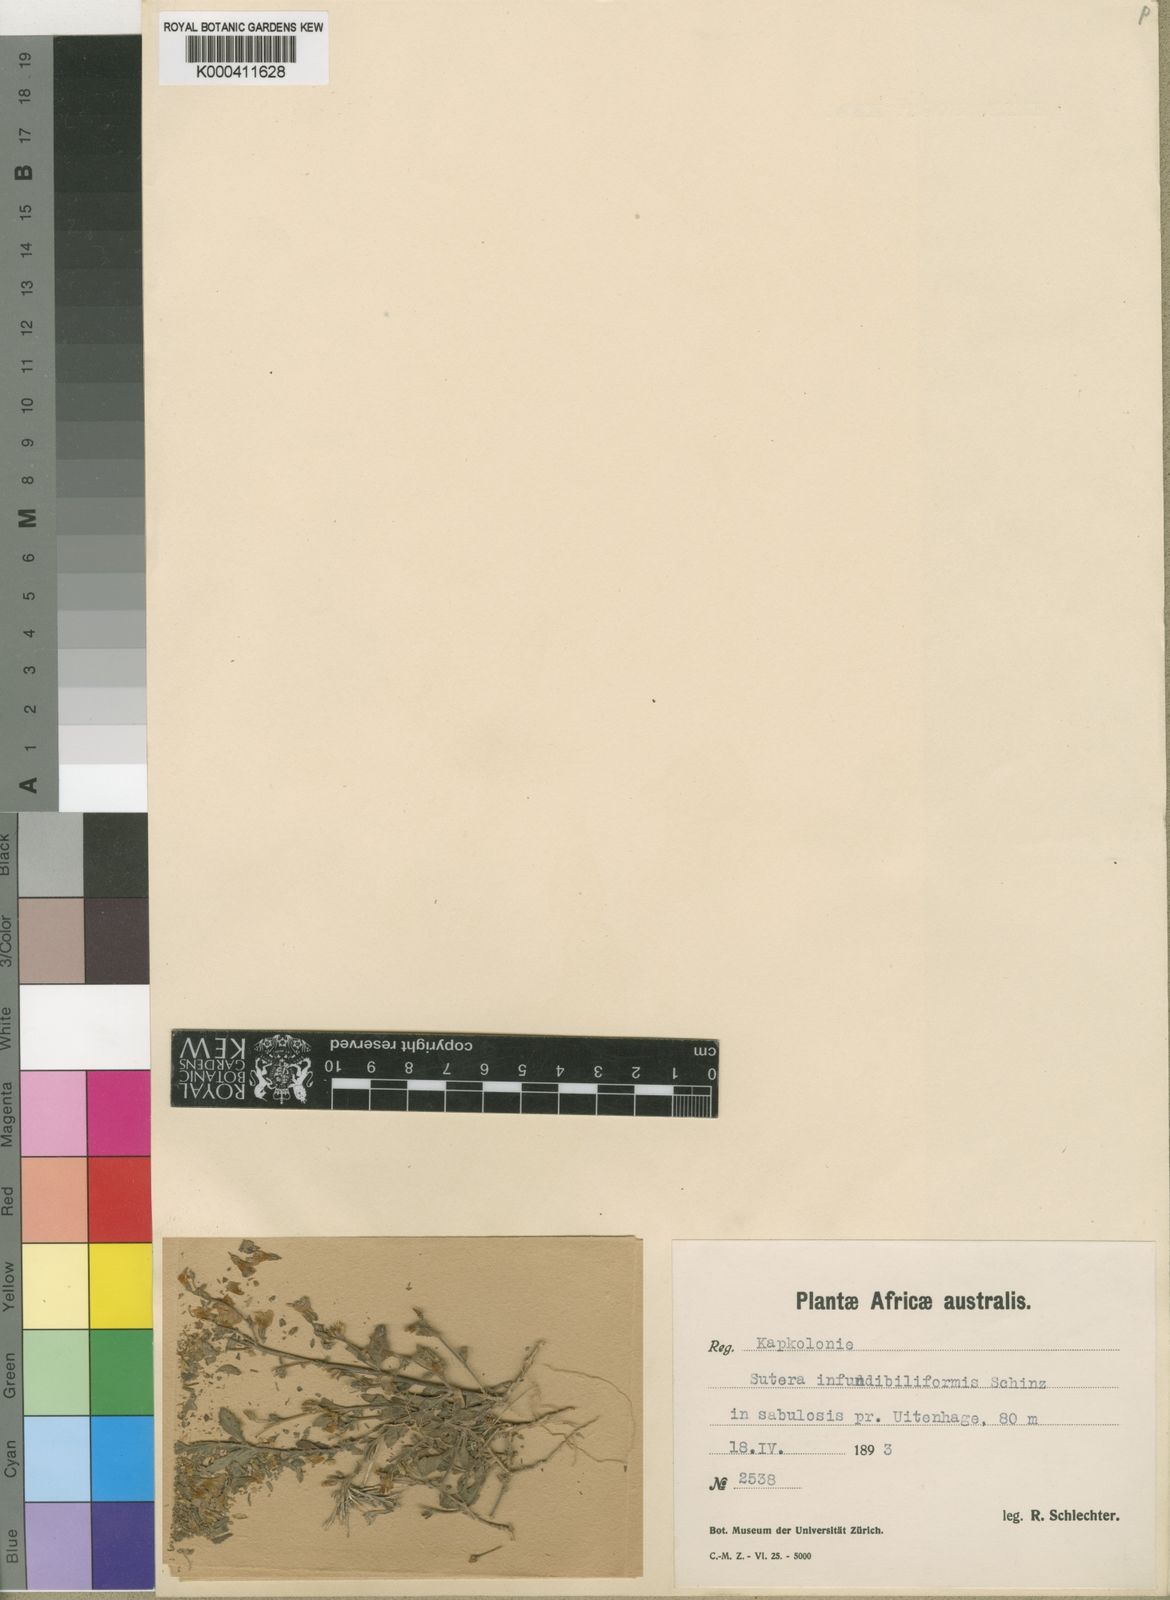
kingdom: Plantae
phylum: Tracheophyta
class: Magnoliopsida
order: Lamiales
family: Scrophulariaceae
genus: Chaenostoma
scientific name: Chaenostoma polyanthum
